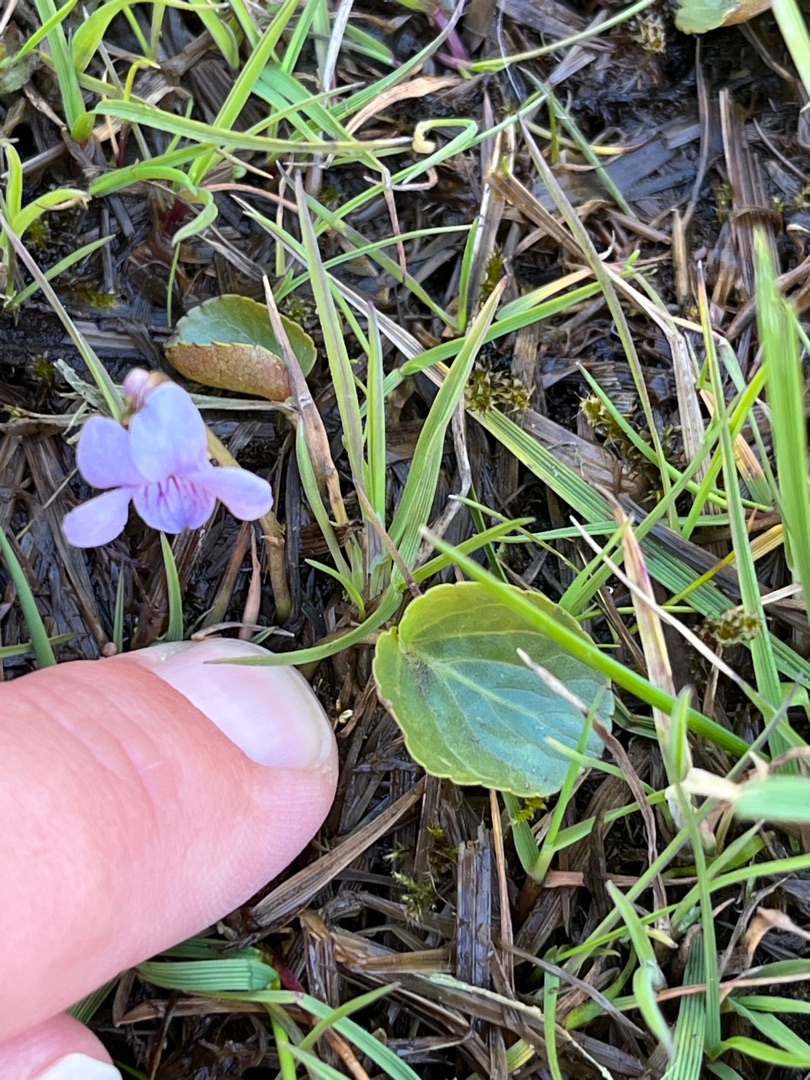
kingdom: Plantae
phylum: Tracheophyta
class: Magnoliopsida
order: Malpighiales
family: Violaceae
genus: Viola
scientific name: Viola palustris
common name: Eng-viol
